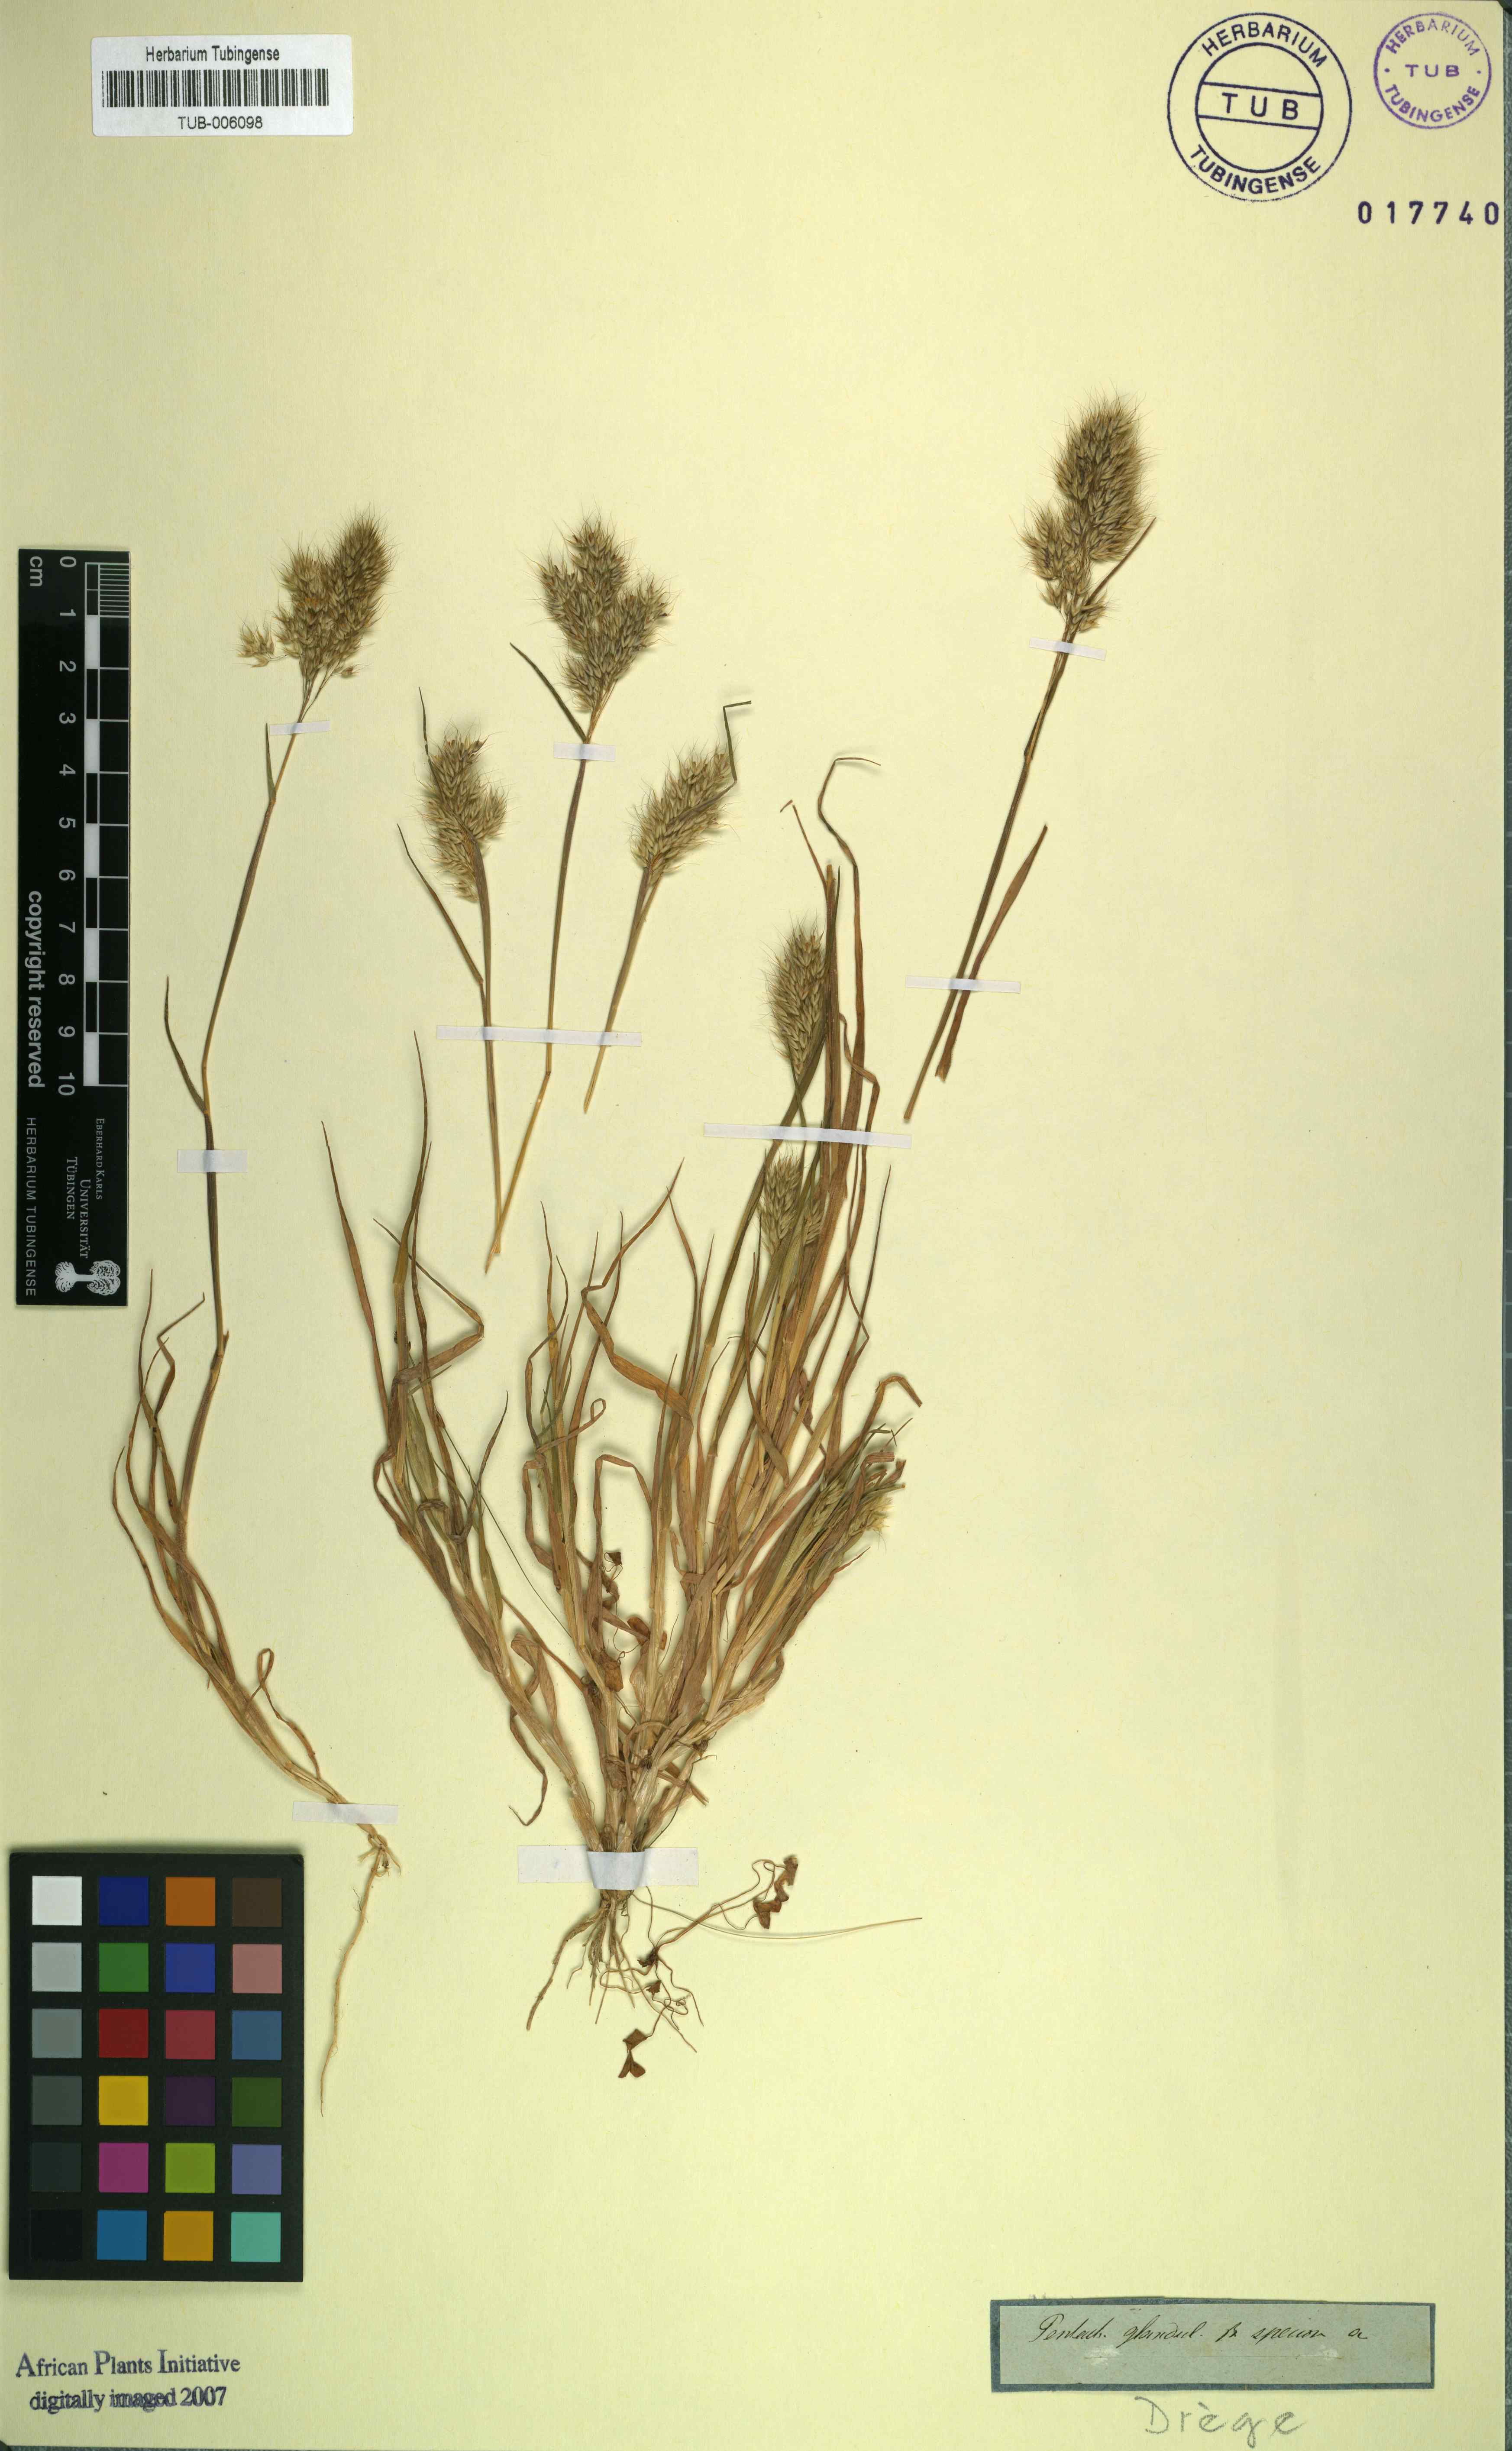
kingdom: Plantae
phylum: Tracheophyta
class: Liliopsida
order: Poales
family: Poaceae
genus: Pentameris
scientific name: Pentameris glandulosa
